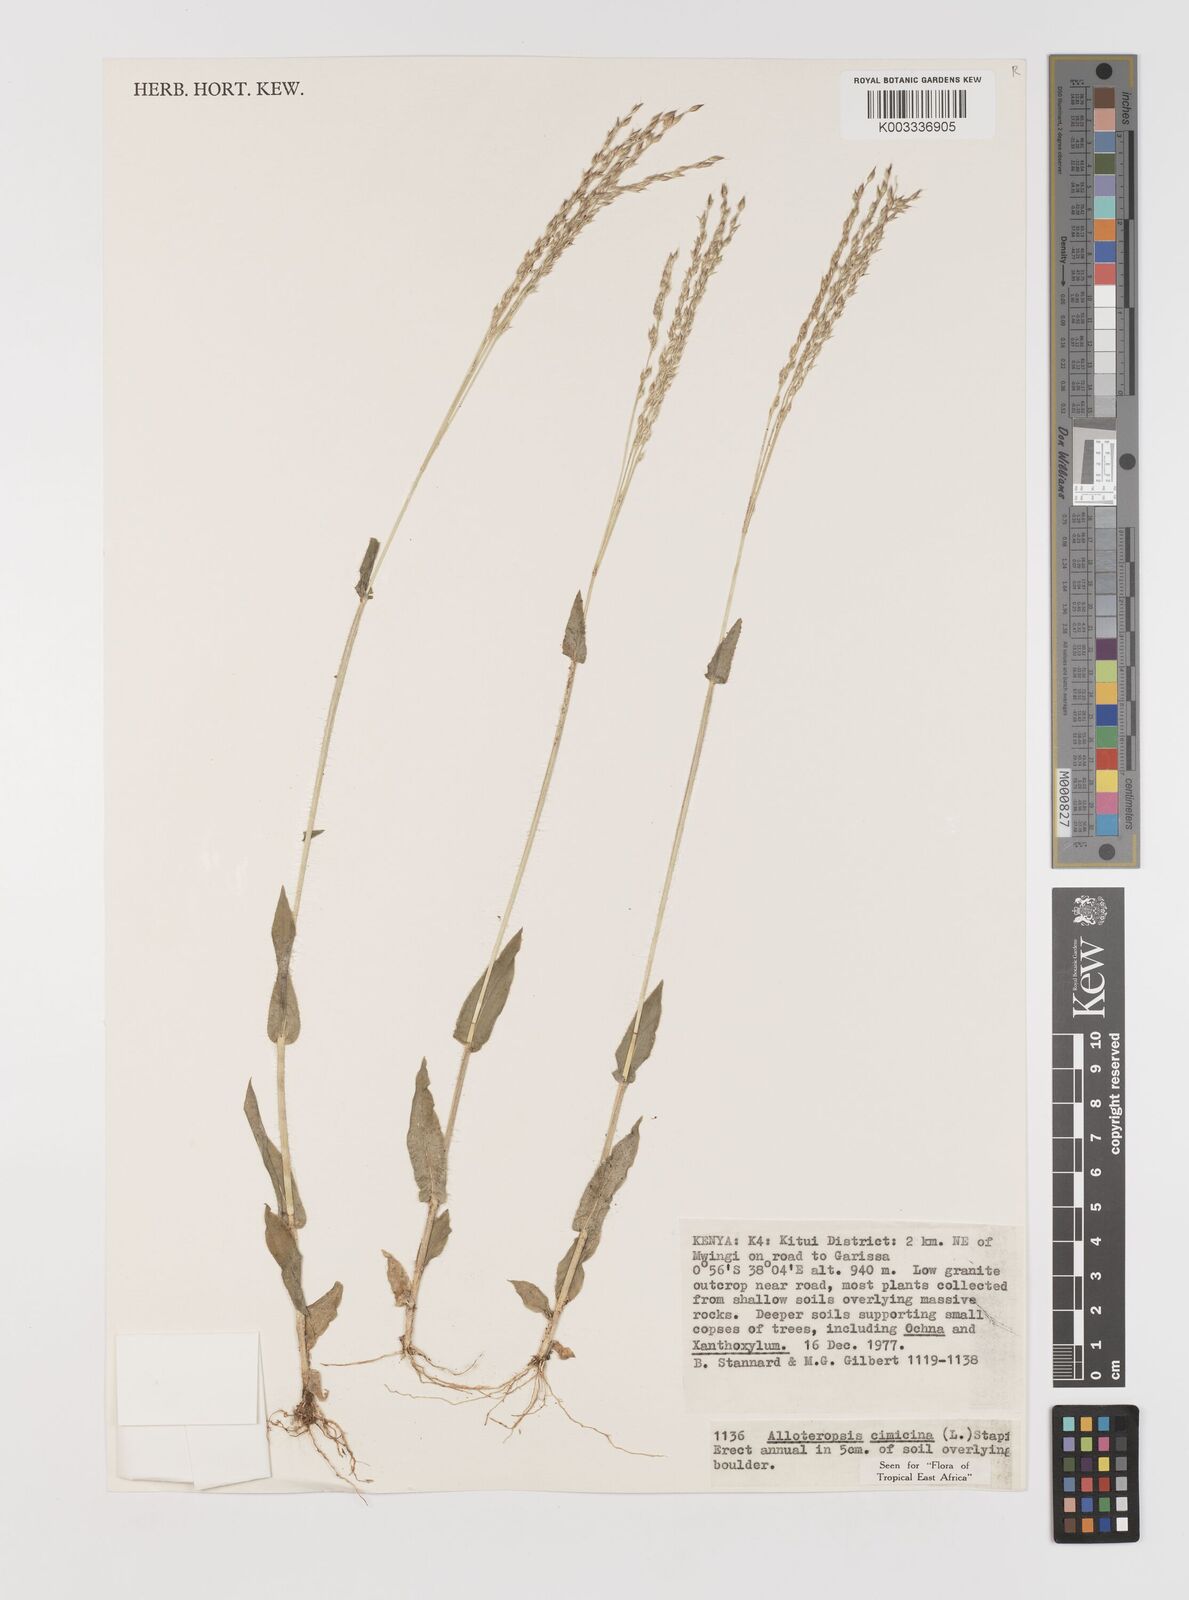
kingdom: Plantae
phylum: Tracheophyta
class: Liliopsida
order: Poales
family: Poaceae
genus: Alloteropsis
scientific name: Alloteropsis cimicina
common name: Summergrass
